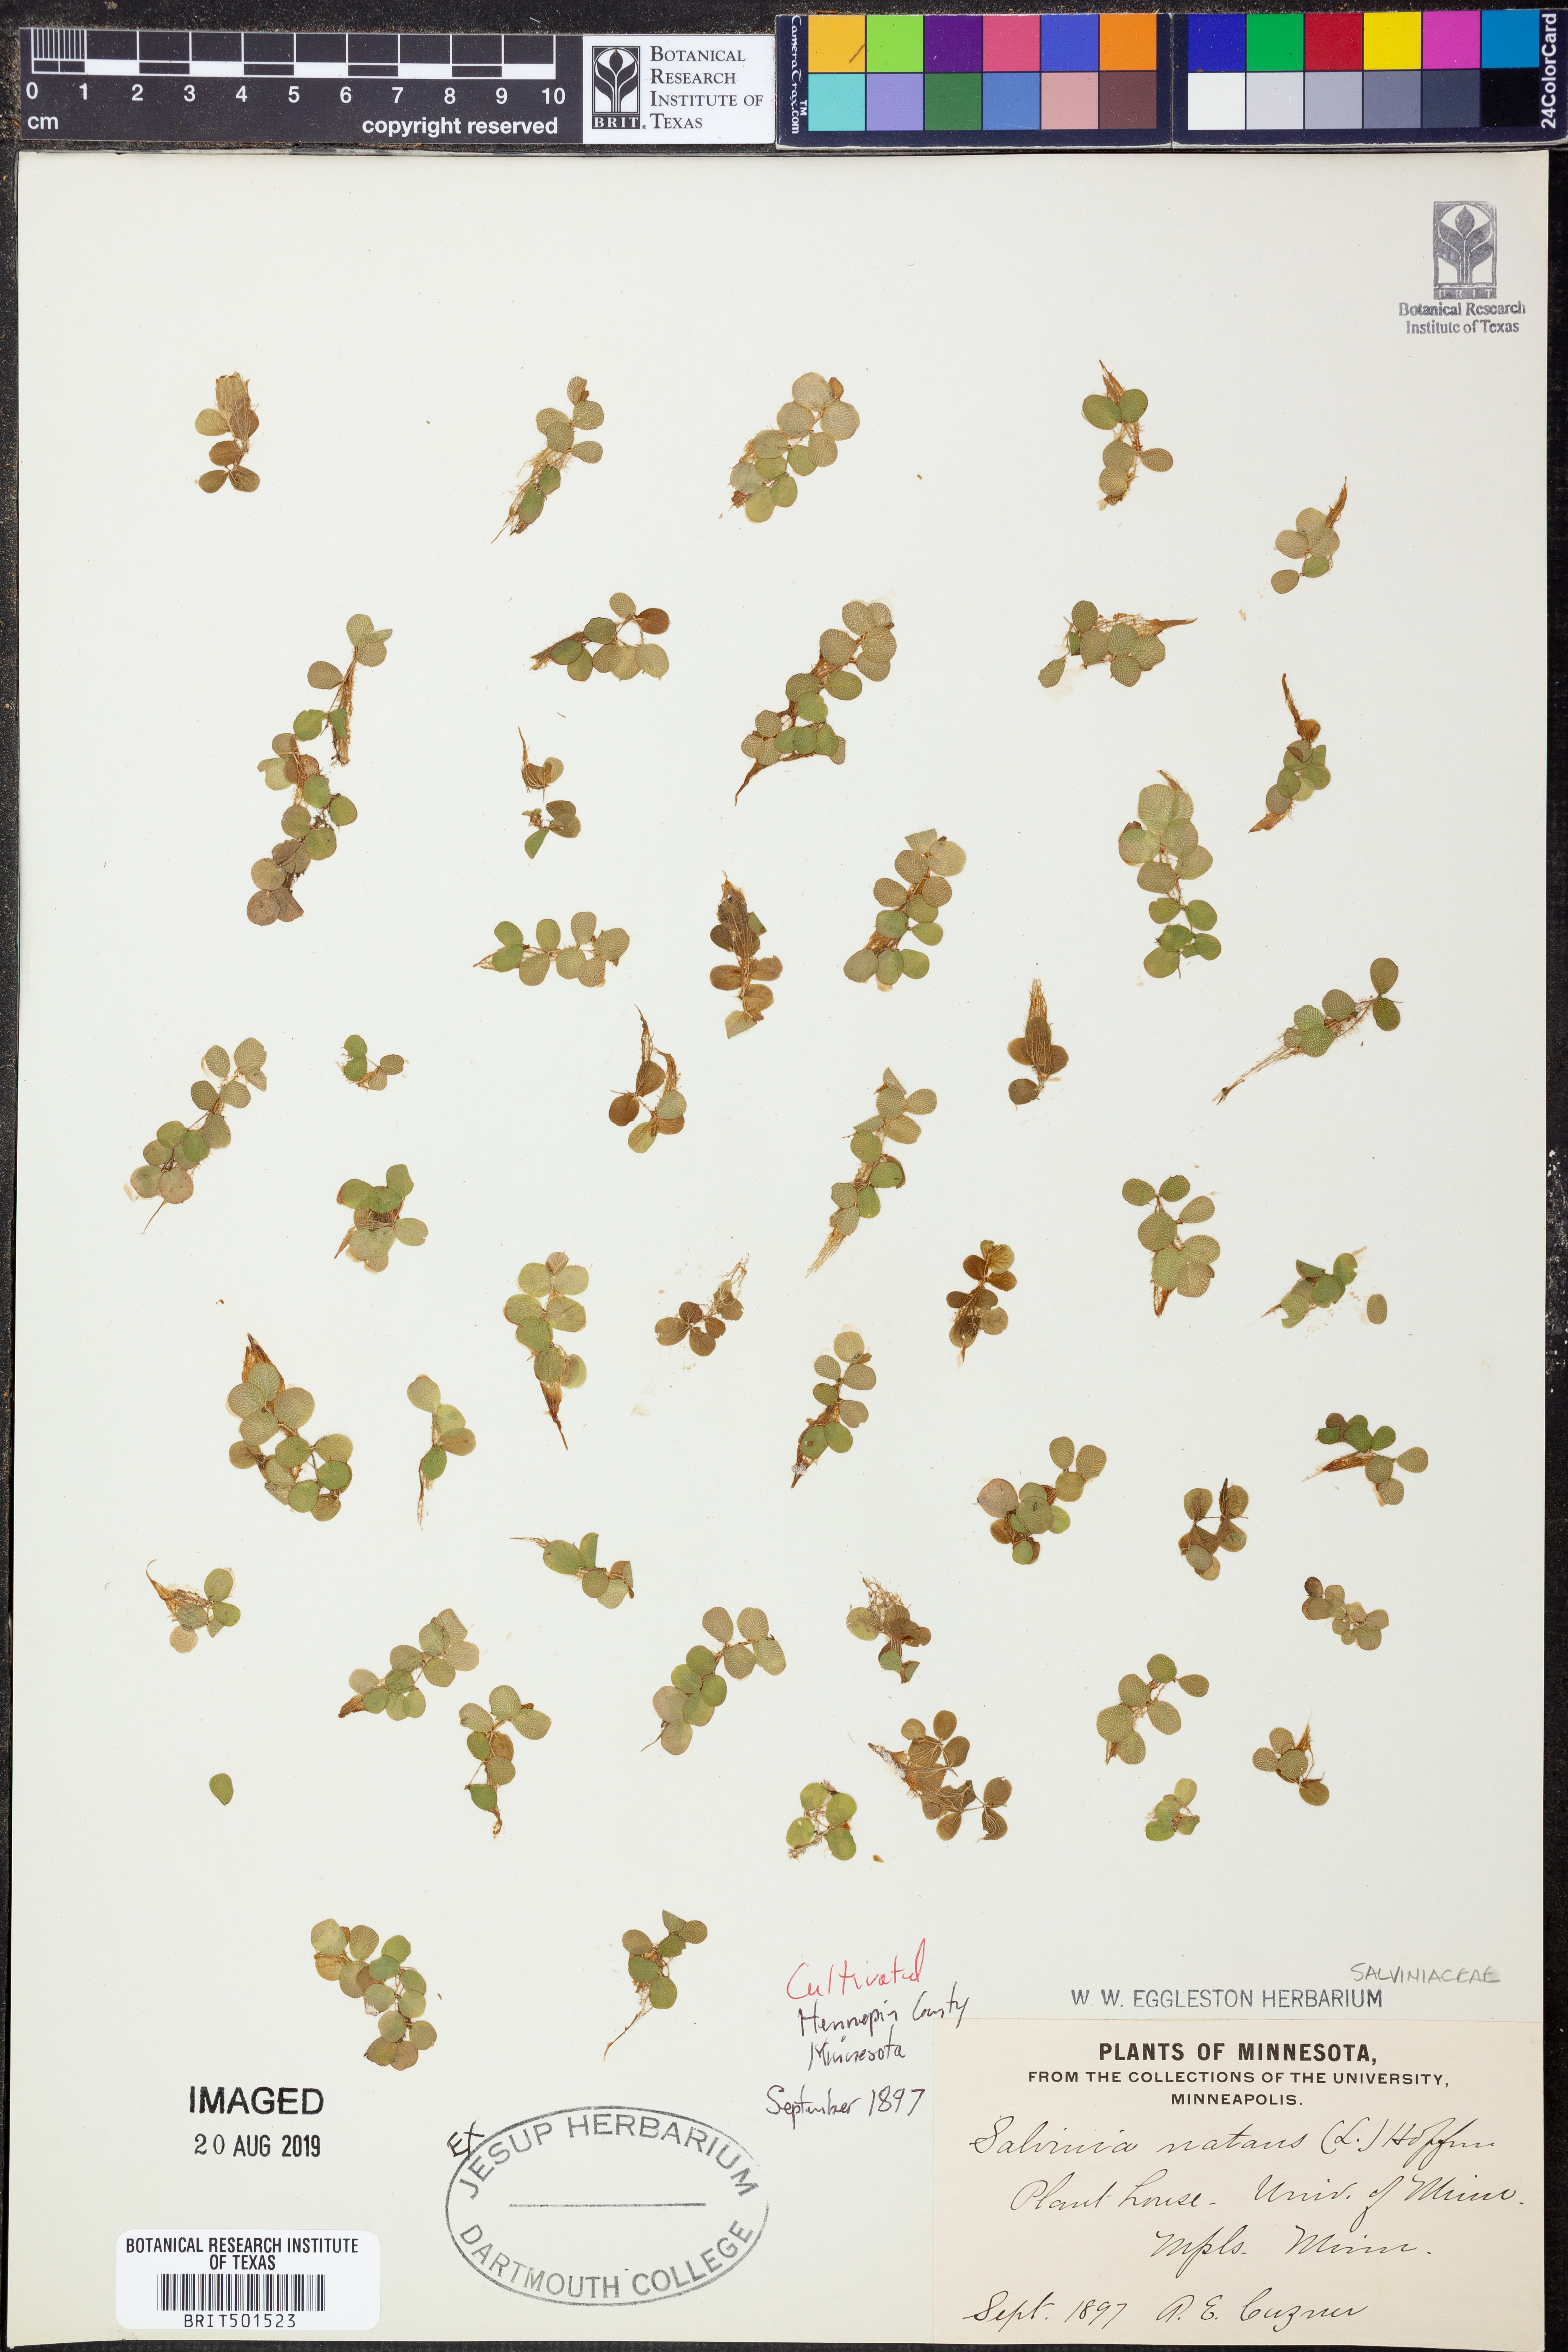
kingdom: Plantae
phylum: Tracheophyta
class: Polypodiopsida
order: Salviniales
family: Salviniaceae
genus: Salvinia
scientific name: Salvinia natans
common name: Floating fern
